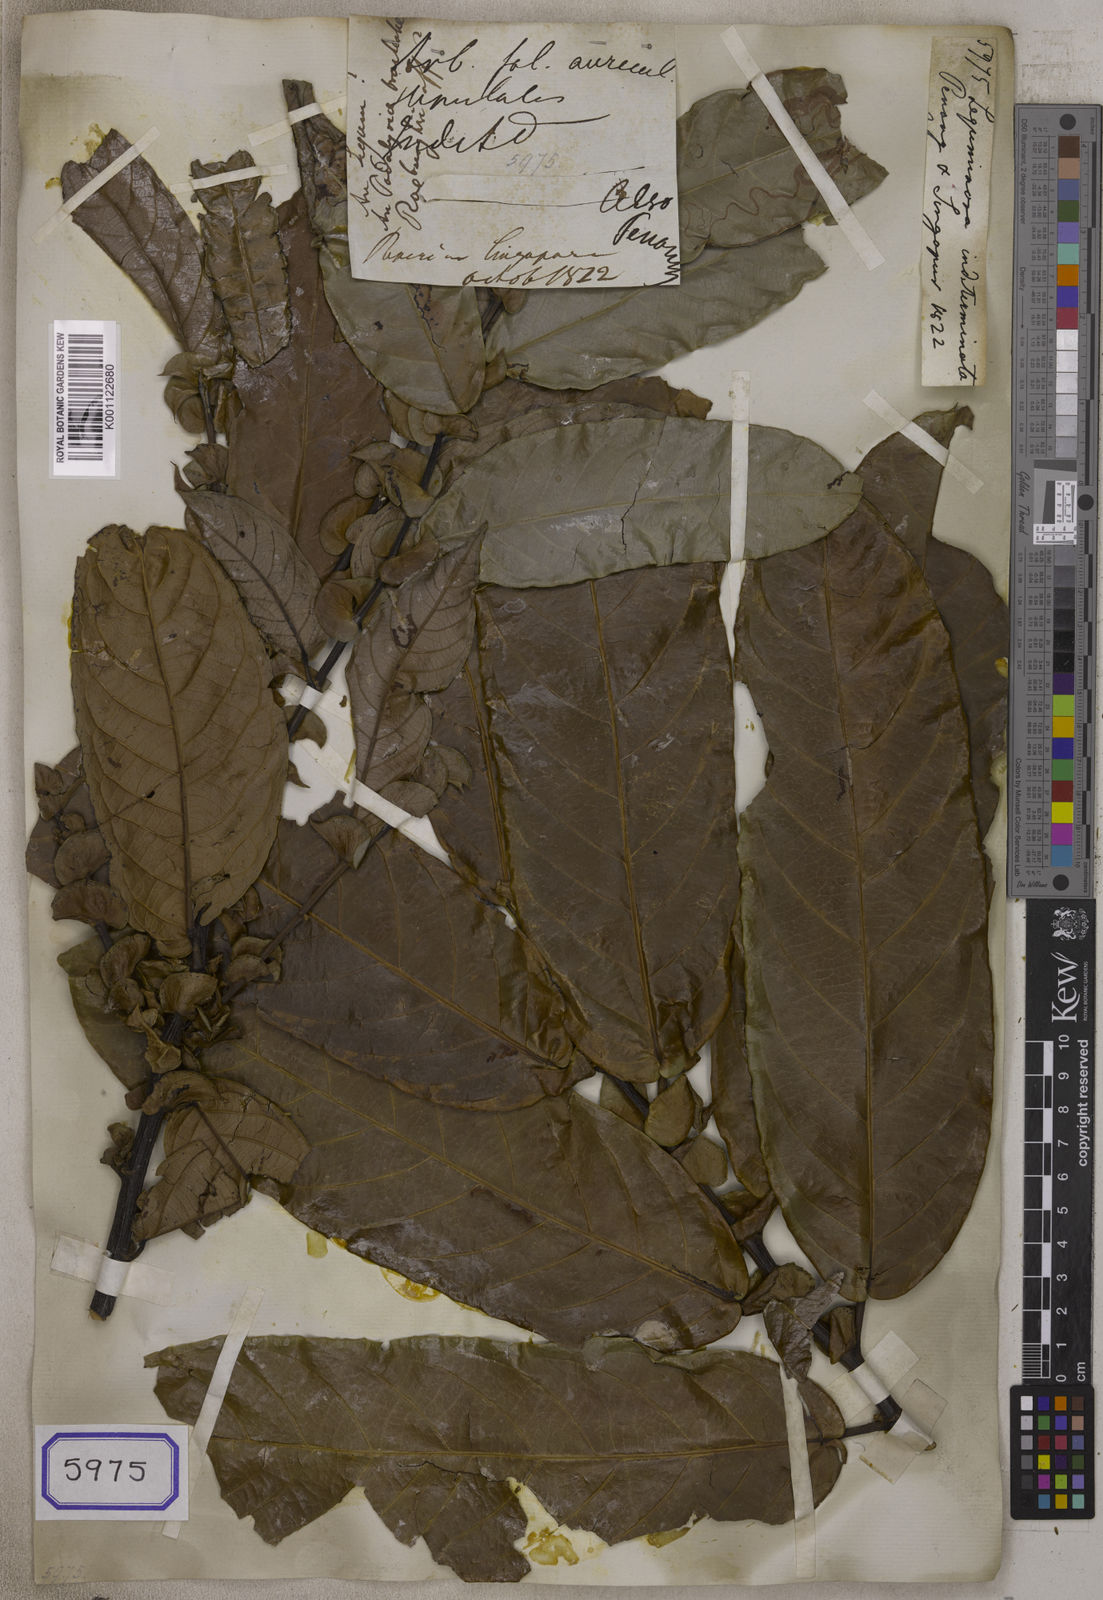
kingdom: Plantae
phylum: Tracheophyta
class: Magnoliopsida
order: Fabales
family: Fabaceae
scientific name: Fabaceae
